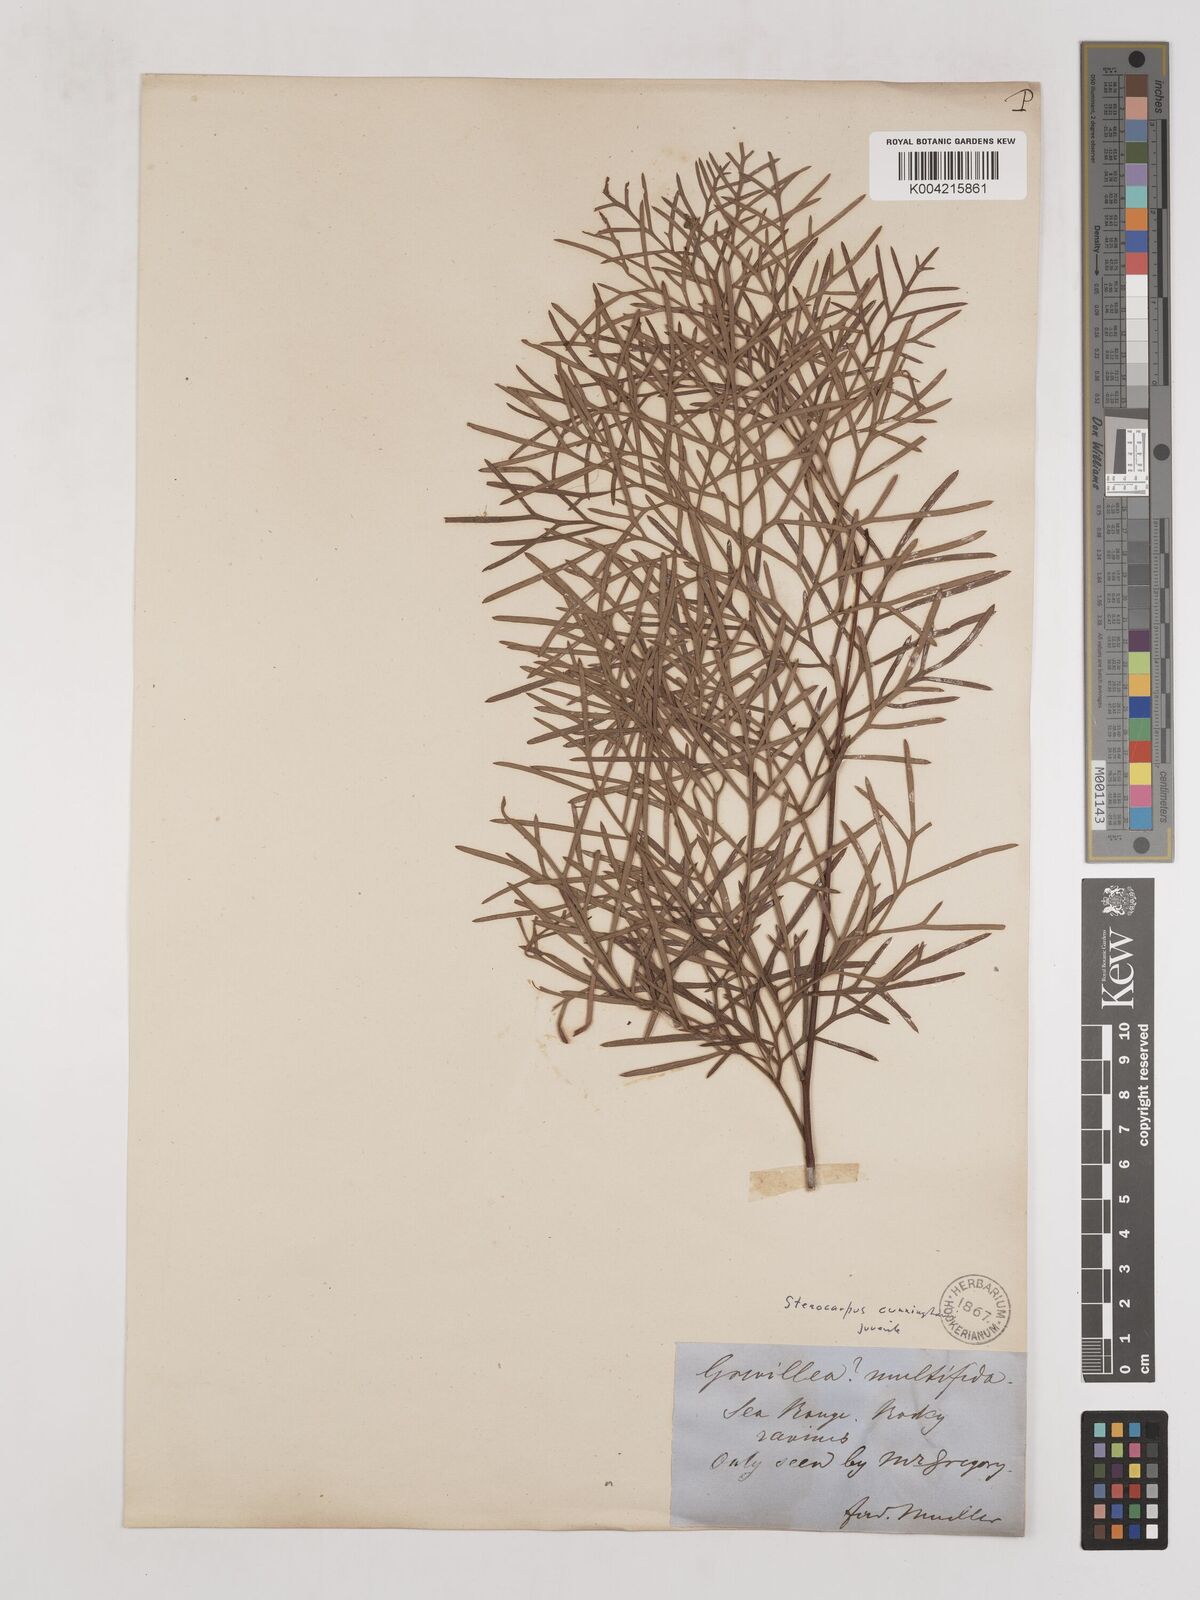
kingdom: Plantae
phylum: Tracheophyta
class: Magnoliopsida
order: Proteales
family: Proteaceae
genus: Stenocarpus
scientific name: Stenocarpus cunninghamii
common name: Little wheelbush
